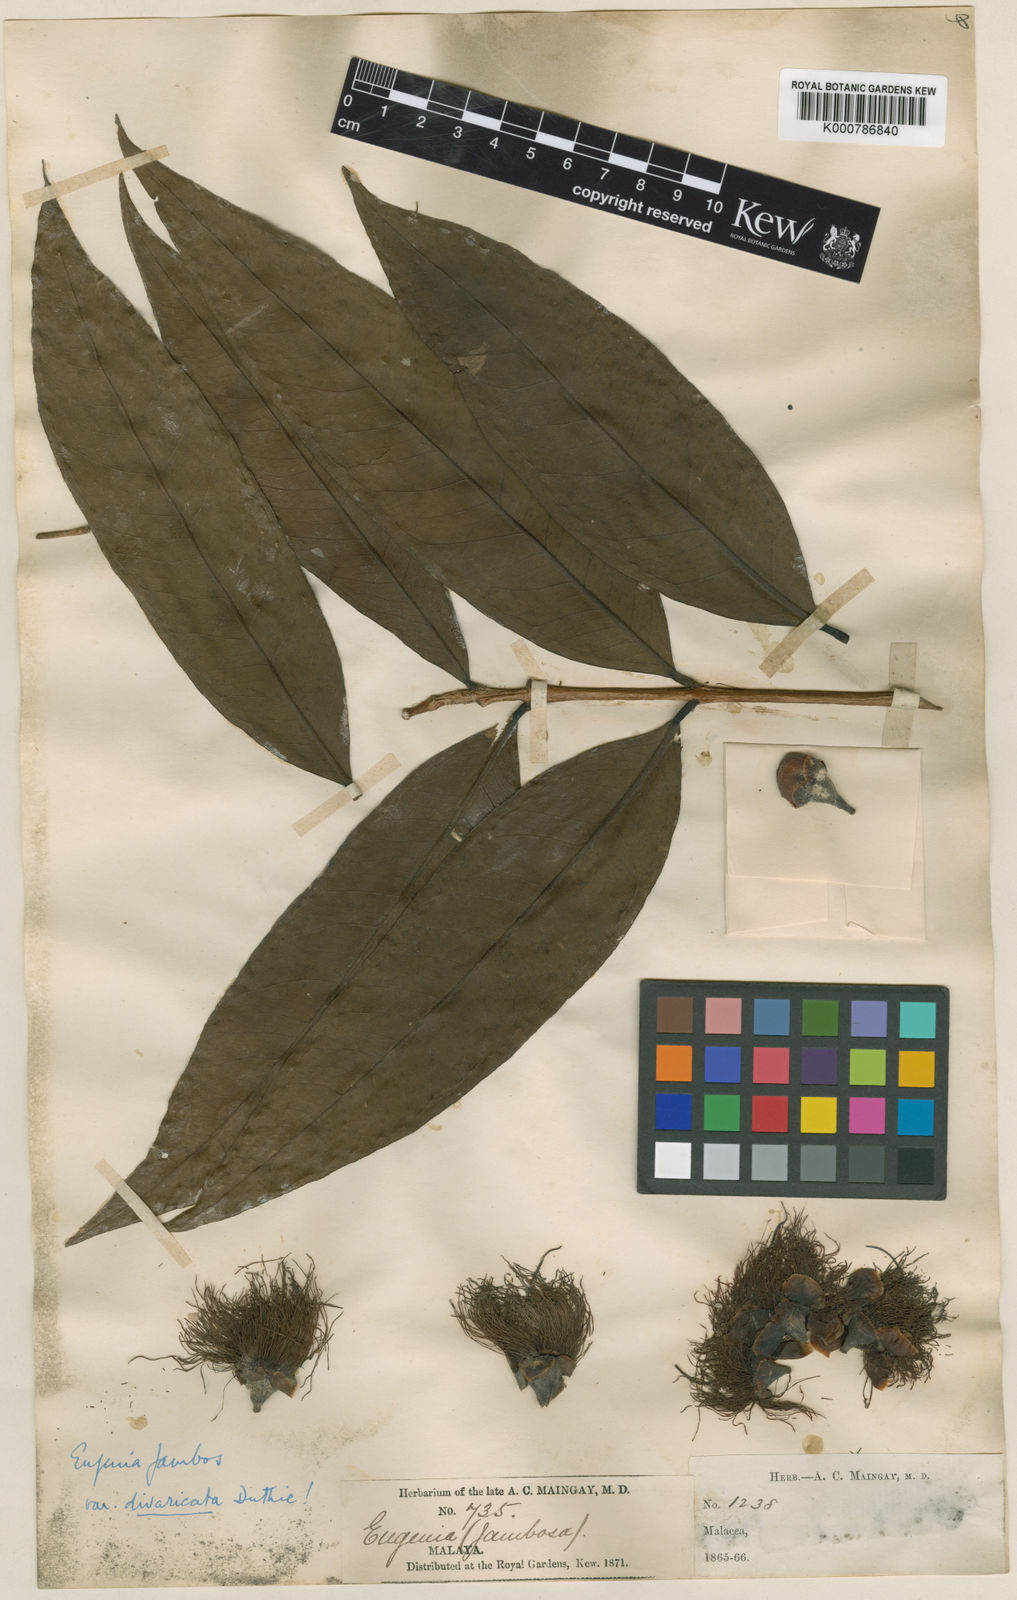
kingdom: Plantae
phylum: Tracheophyta
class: Magnoliopsida
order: Myrtales
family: Myrtaceae
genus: Syzygium
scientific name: Syzygium jambos
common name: Malabar plum
